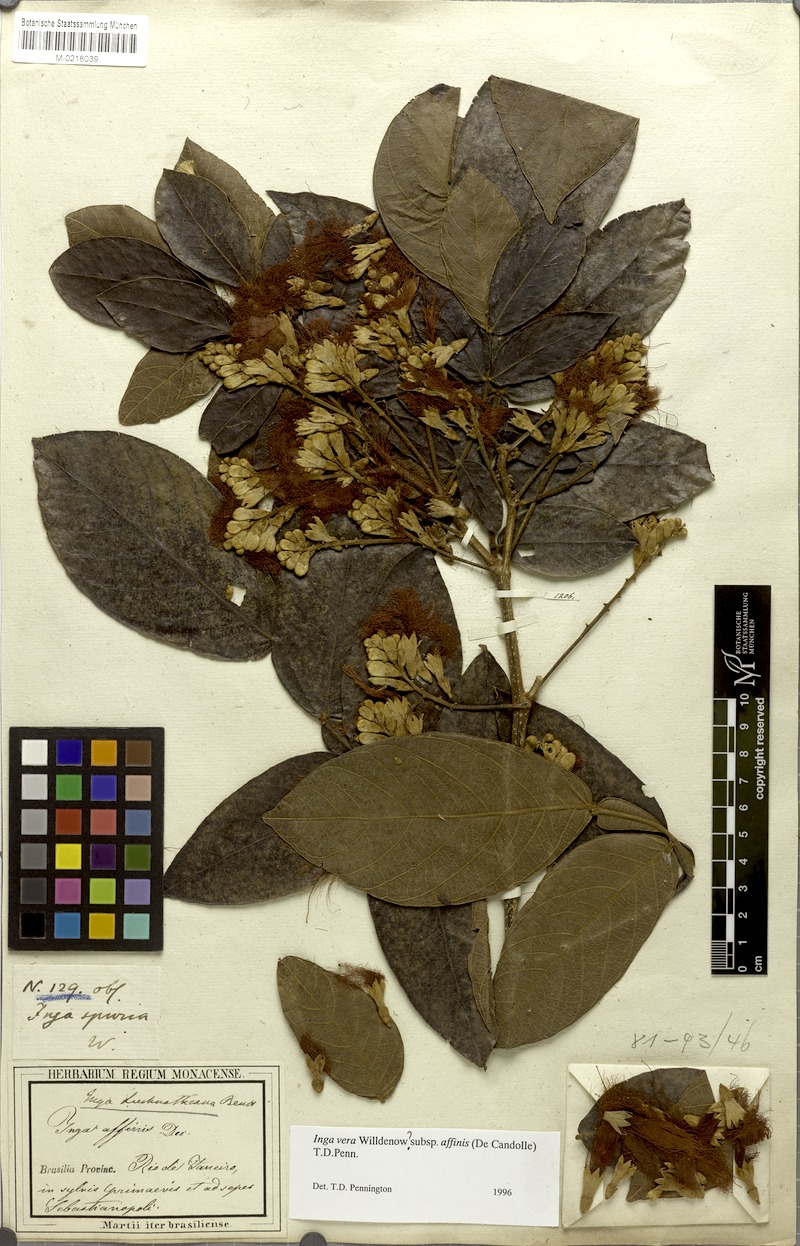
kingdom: Plantae
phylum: Tracheophyta
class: Magnoliopsida
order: Fabales
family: Fabaceae
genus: Inga
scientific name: Inga affinis
